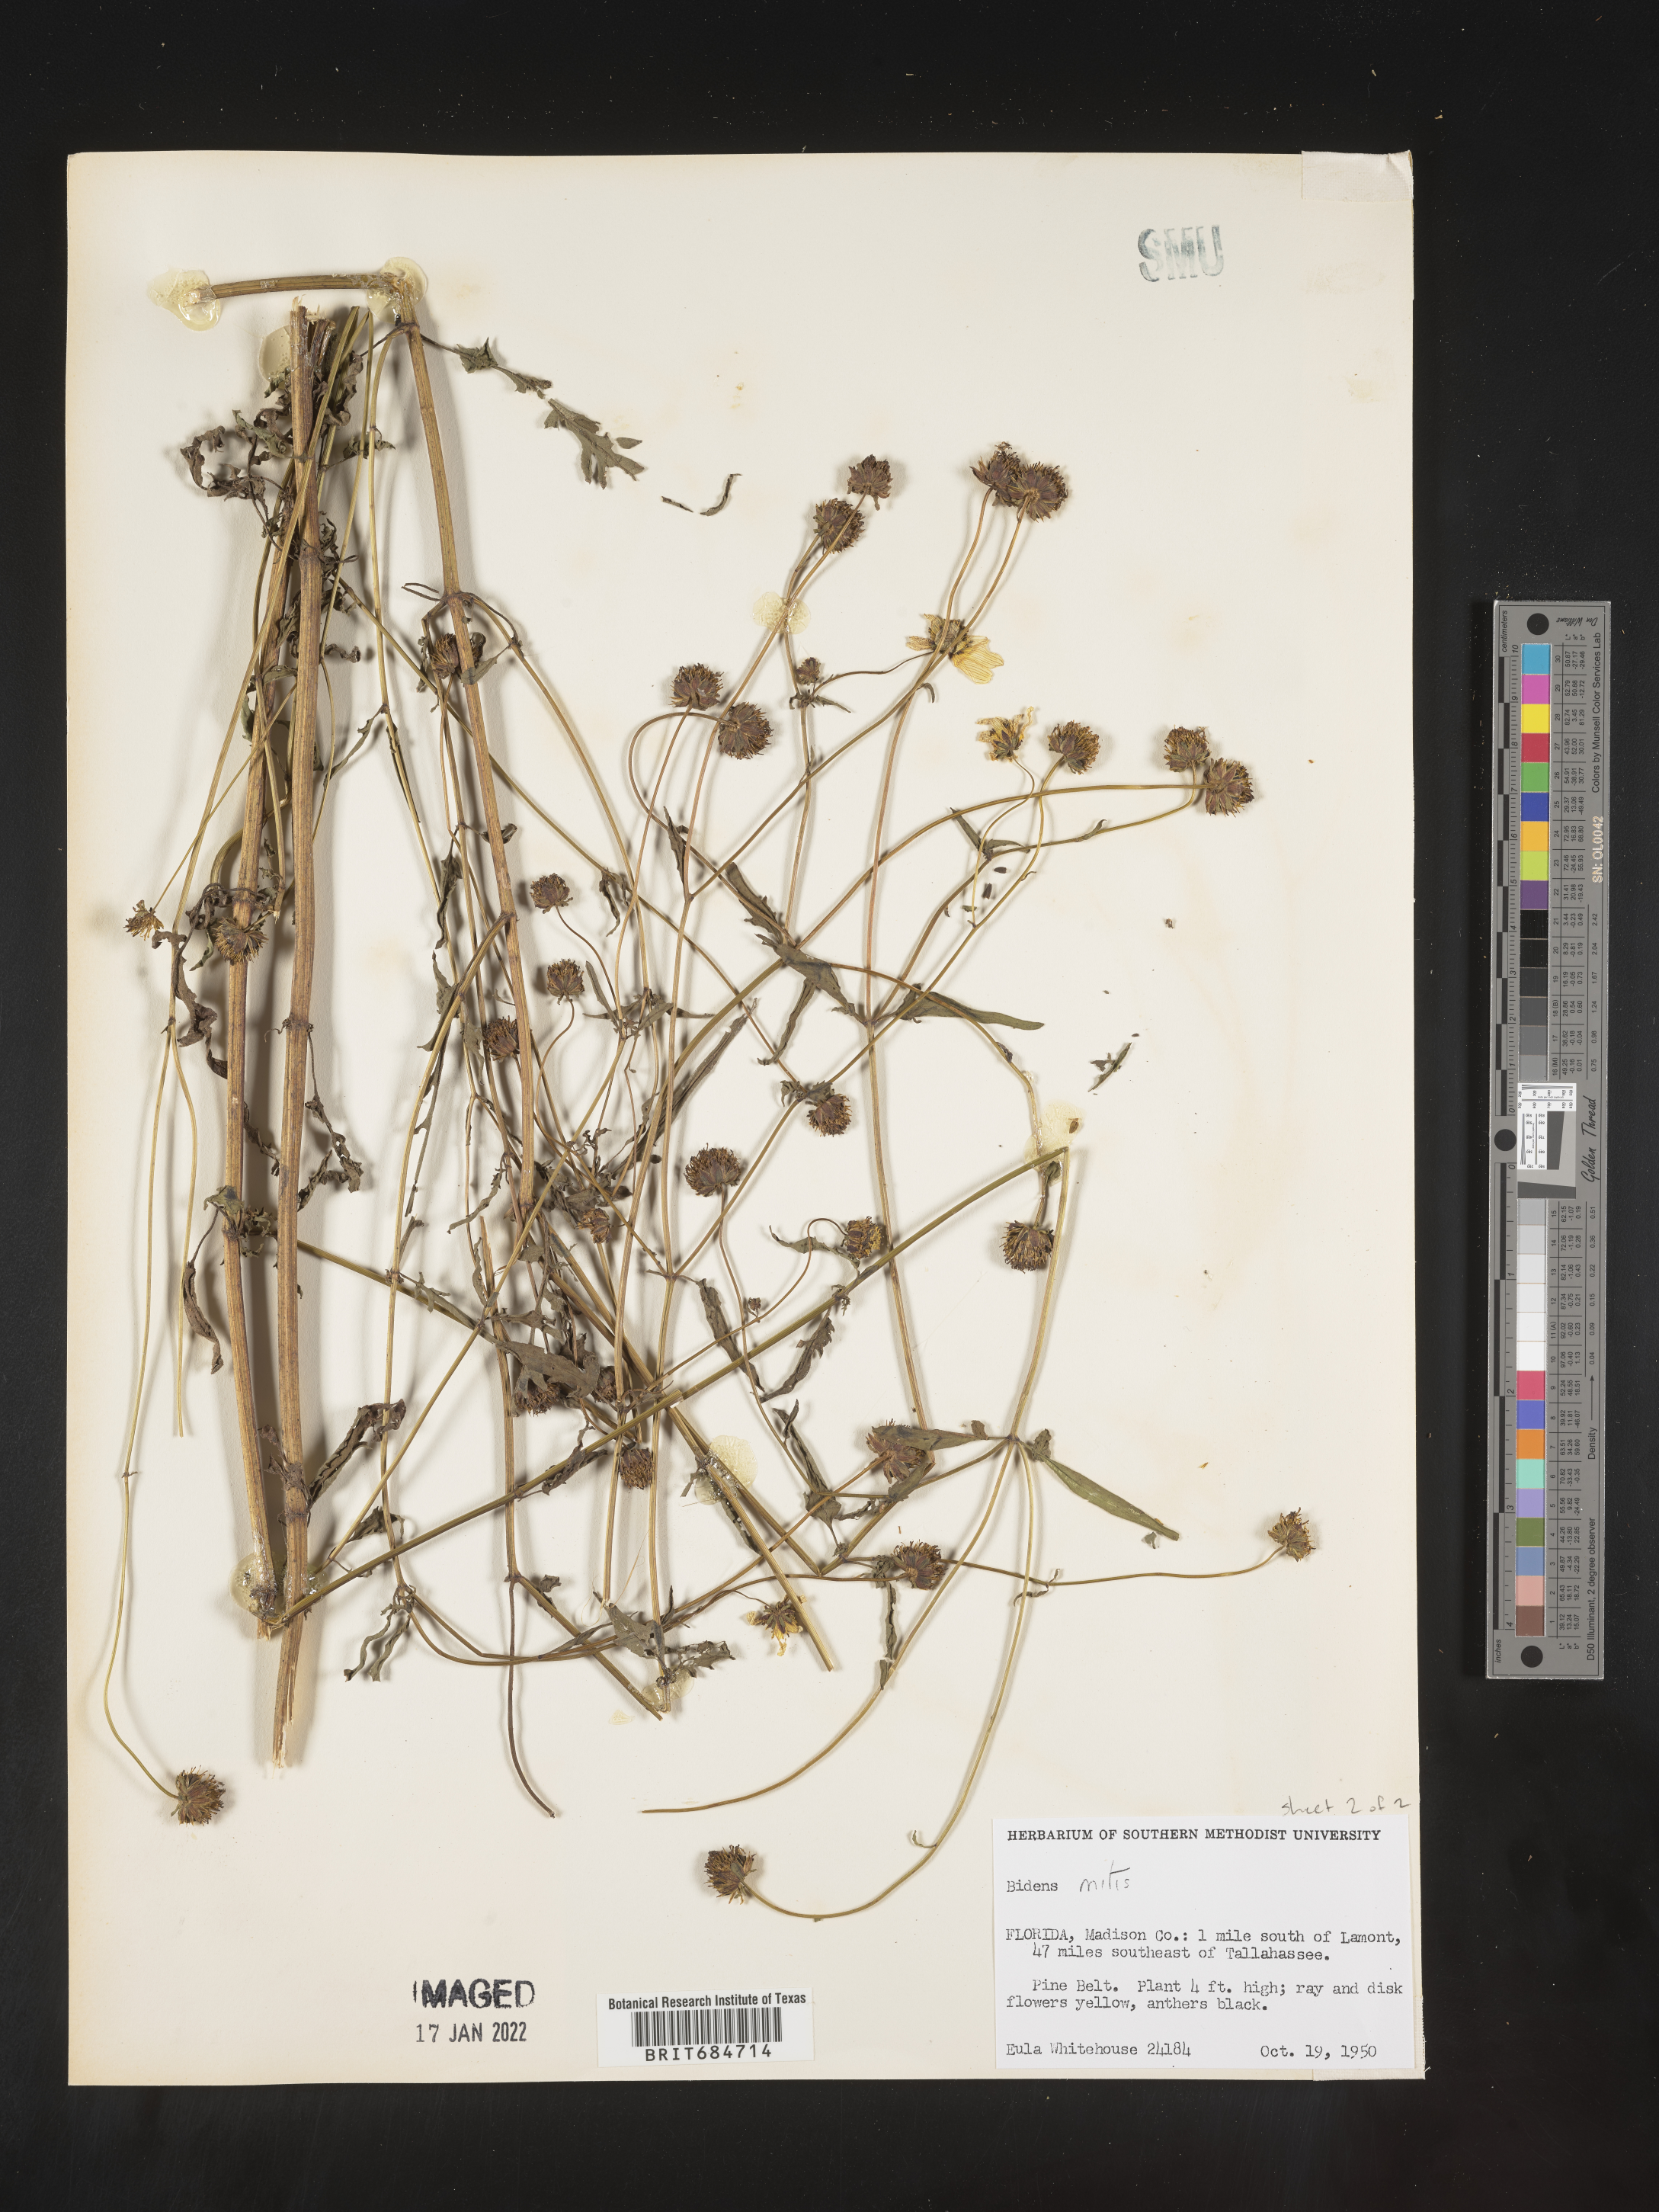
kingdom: Plantae
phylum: Tracheophyta
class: Magnoliopsida
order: Asterales
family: Asteraceae
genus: Bidens
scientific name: Bidens mitis
